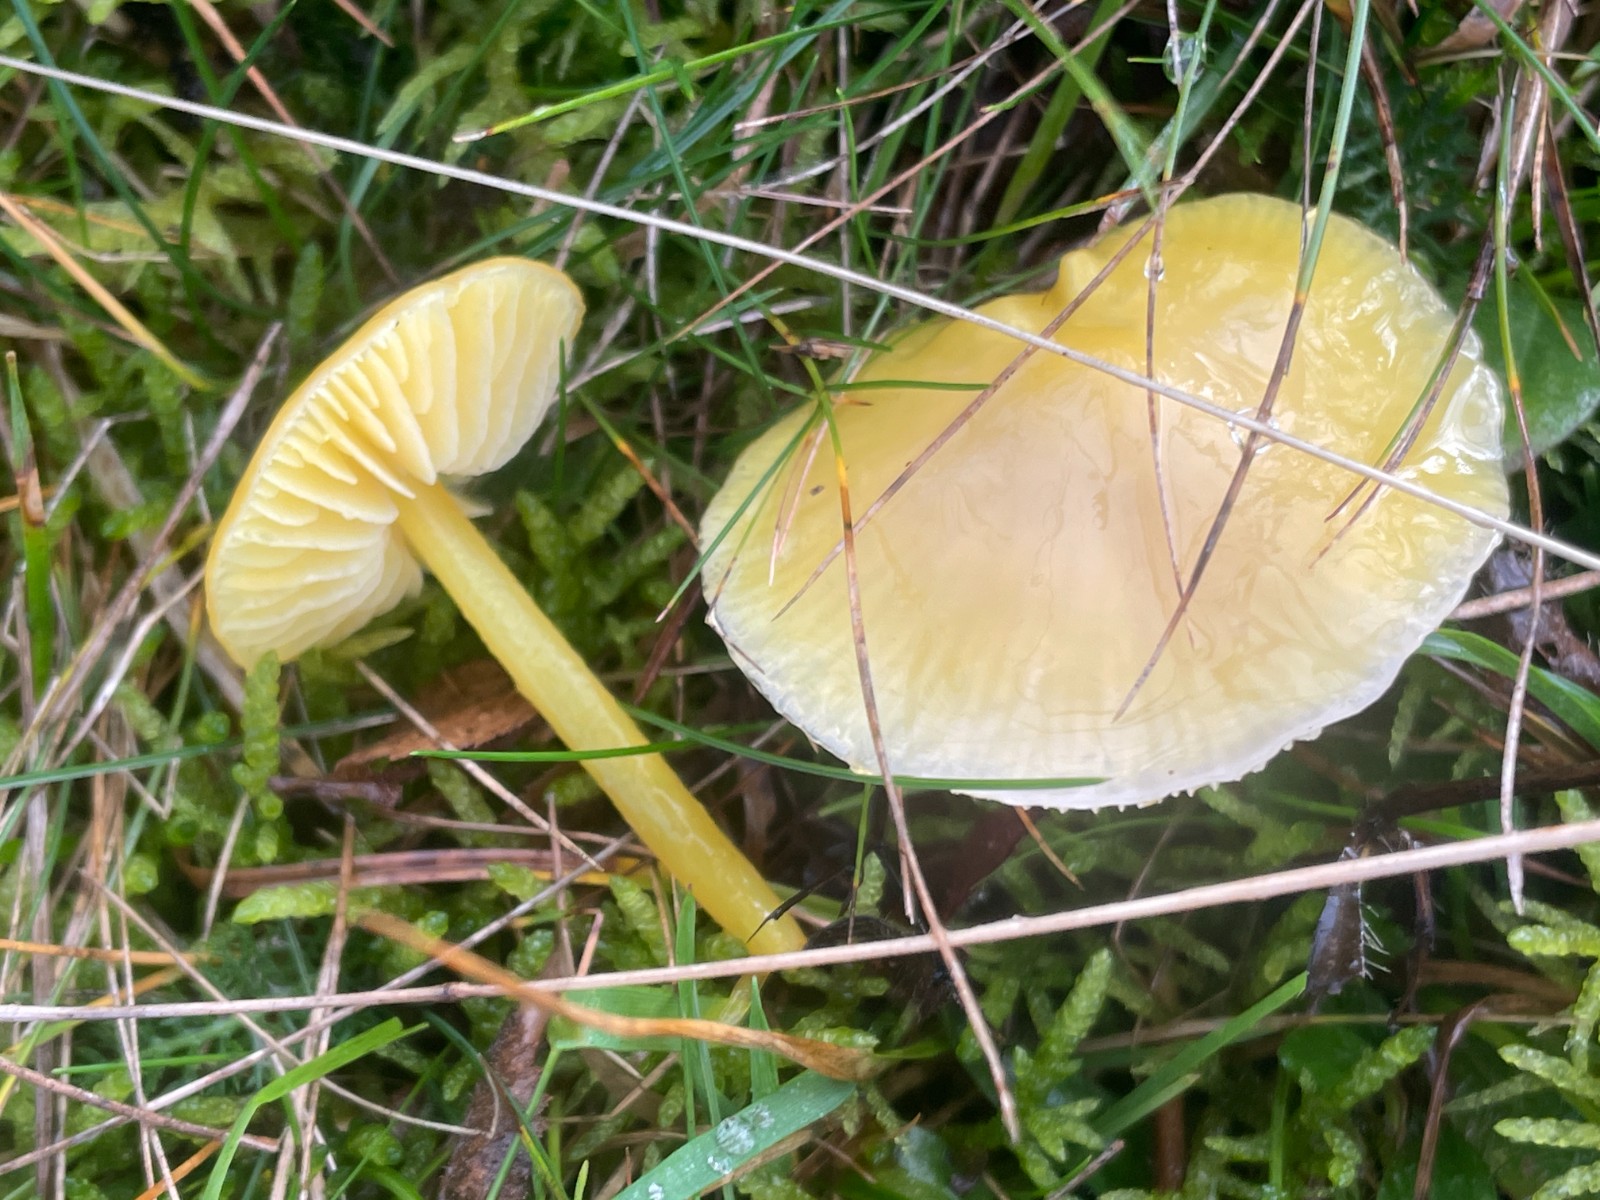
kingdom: Fungi
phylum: Basidiomycota
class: Agaricomycetes
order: Agaricales
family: Hygrophoraceae
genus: Hygrocybe
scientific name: Hygrocybe chlorophana
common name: gul vokshat
